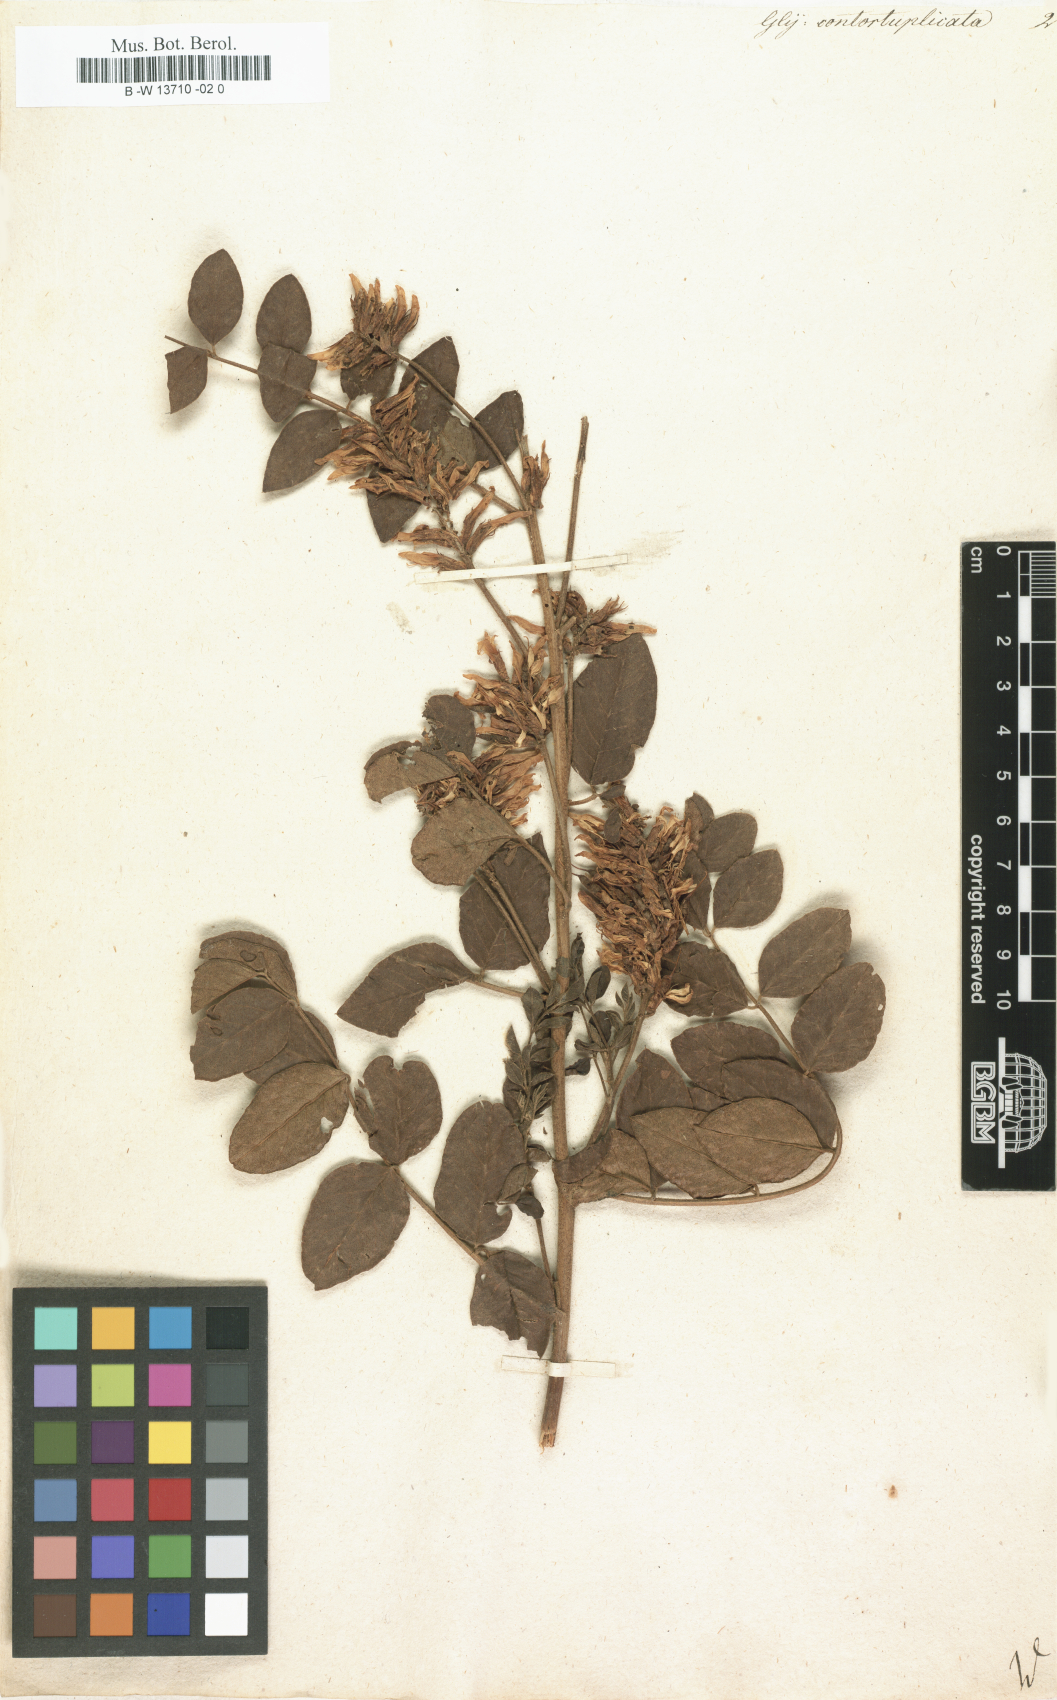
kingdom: Plantae
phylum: Tracheophyta
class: Magnoliopsida
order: Fabales
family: Fabaceae
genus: Glycyrrhiza
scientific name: Glycyrrhiza
